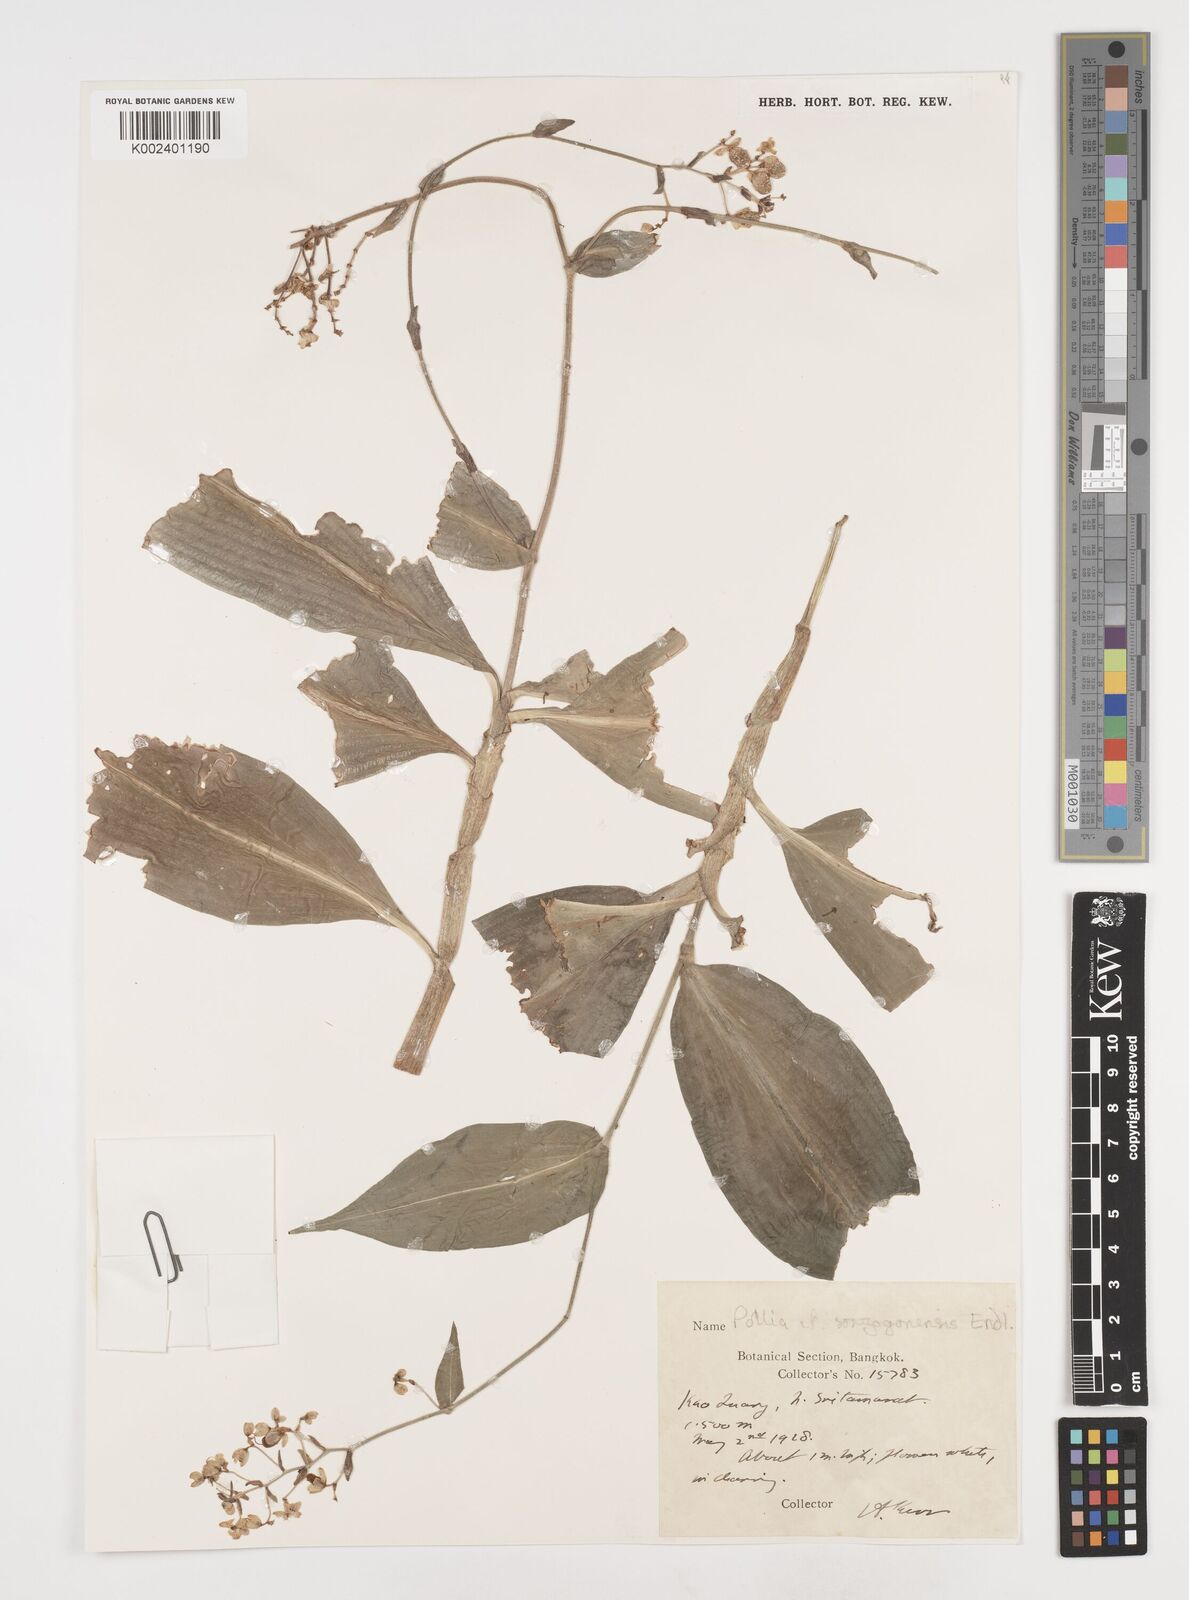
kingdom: Plantae
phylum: Tracheophyta
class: Liliopsida
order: Commelinales
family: Commelinaceae
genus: Pollia
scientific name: Pollia secundiflora
